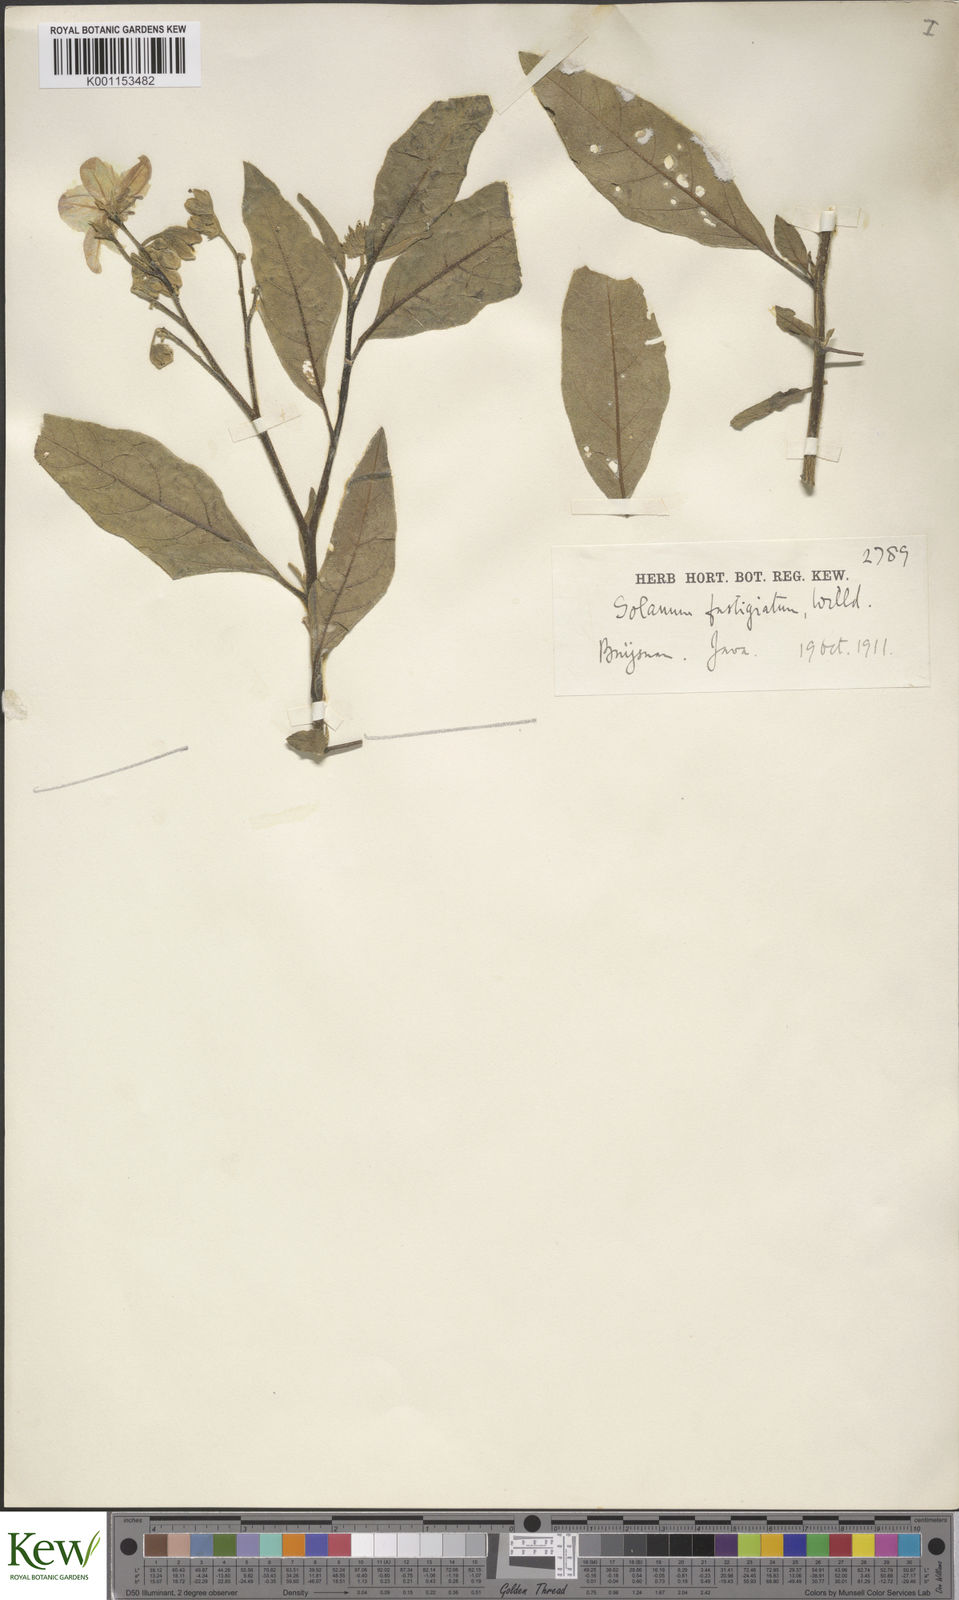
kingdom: Plantae
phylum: Tracheophyta
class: Magnoliopsida
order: Solanales
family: Solanaceae
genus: Solanum
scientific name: Solanum bonariense
